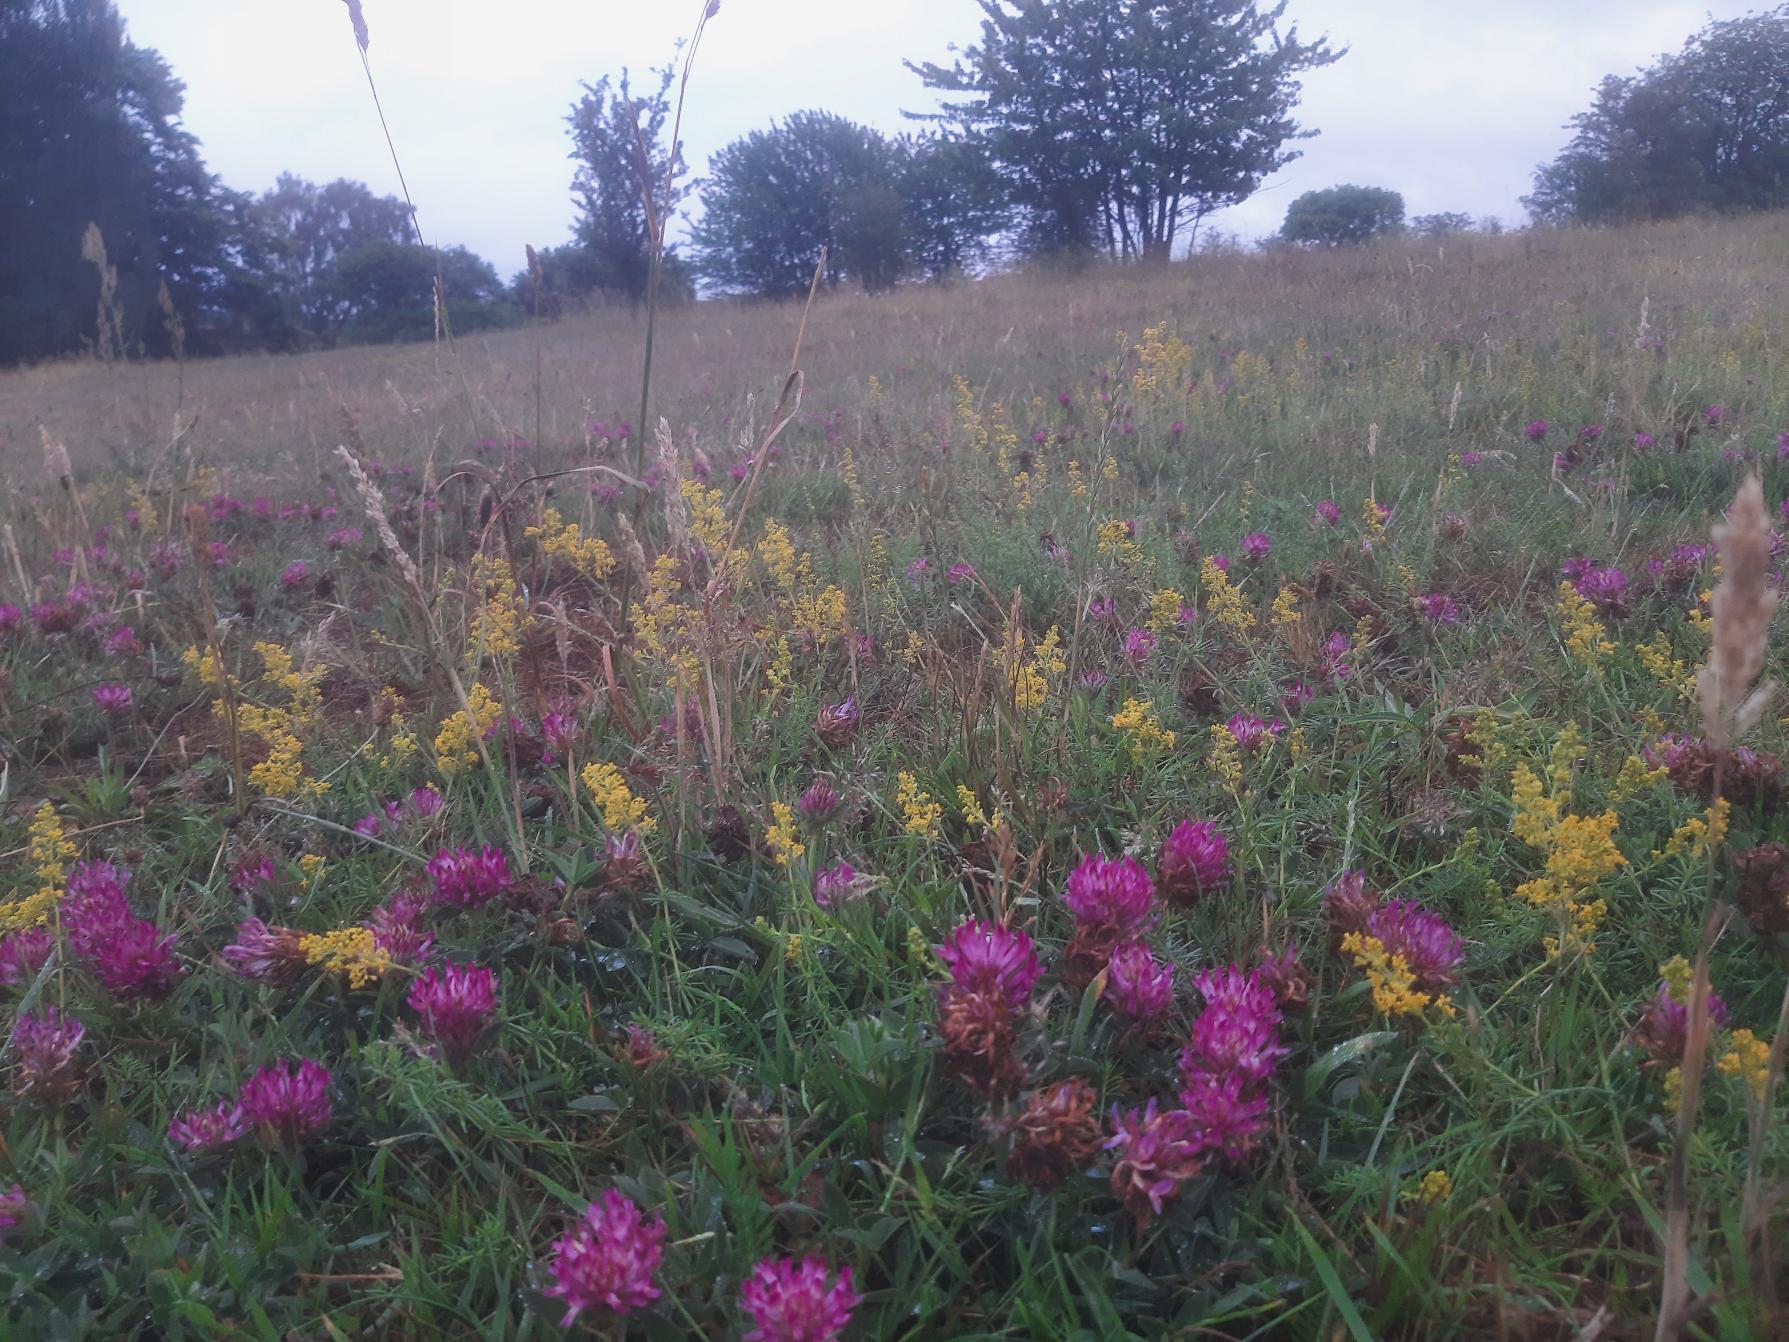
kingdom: Plantae
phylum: Tracheophyta
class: Magnoliopsida
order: Fabales
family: Fabaceae
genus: Trifolium
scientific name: Trifolium medium
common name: Bugtet kløver
